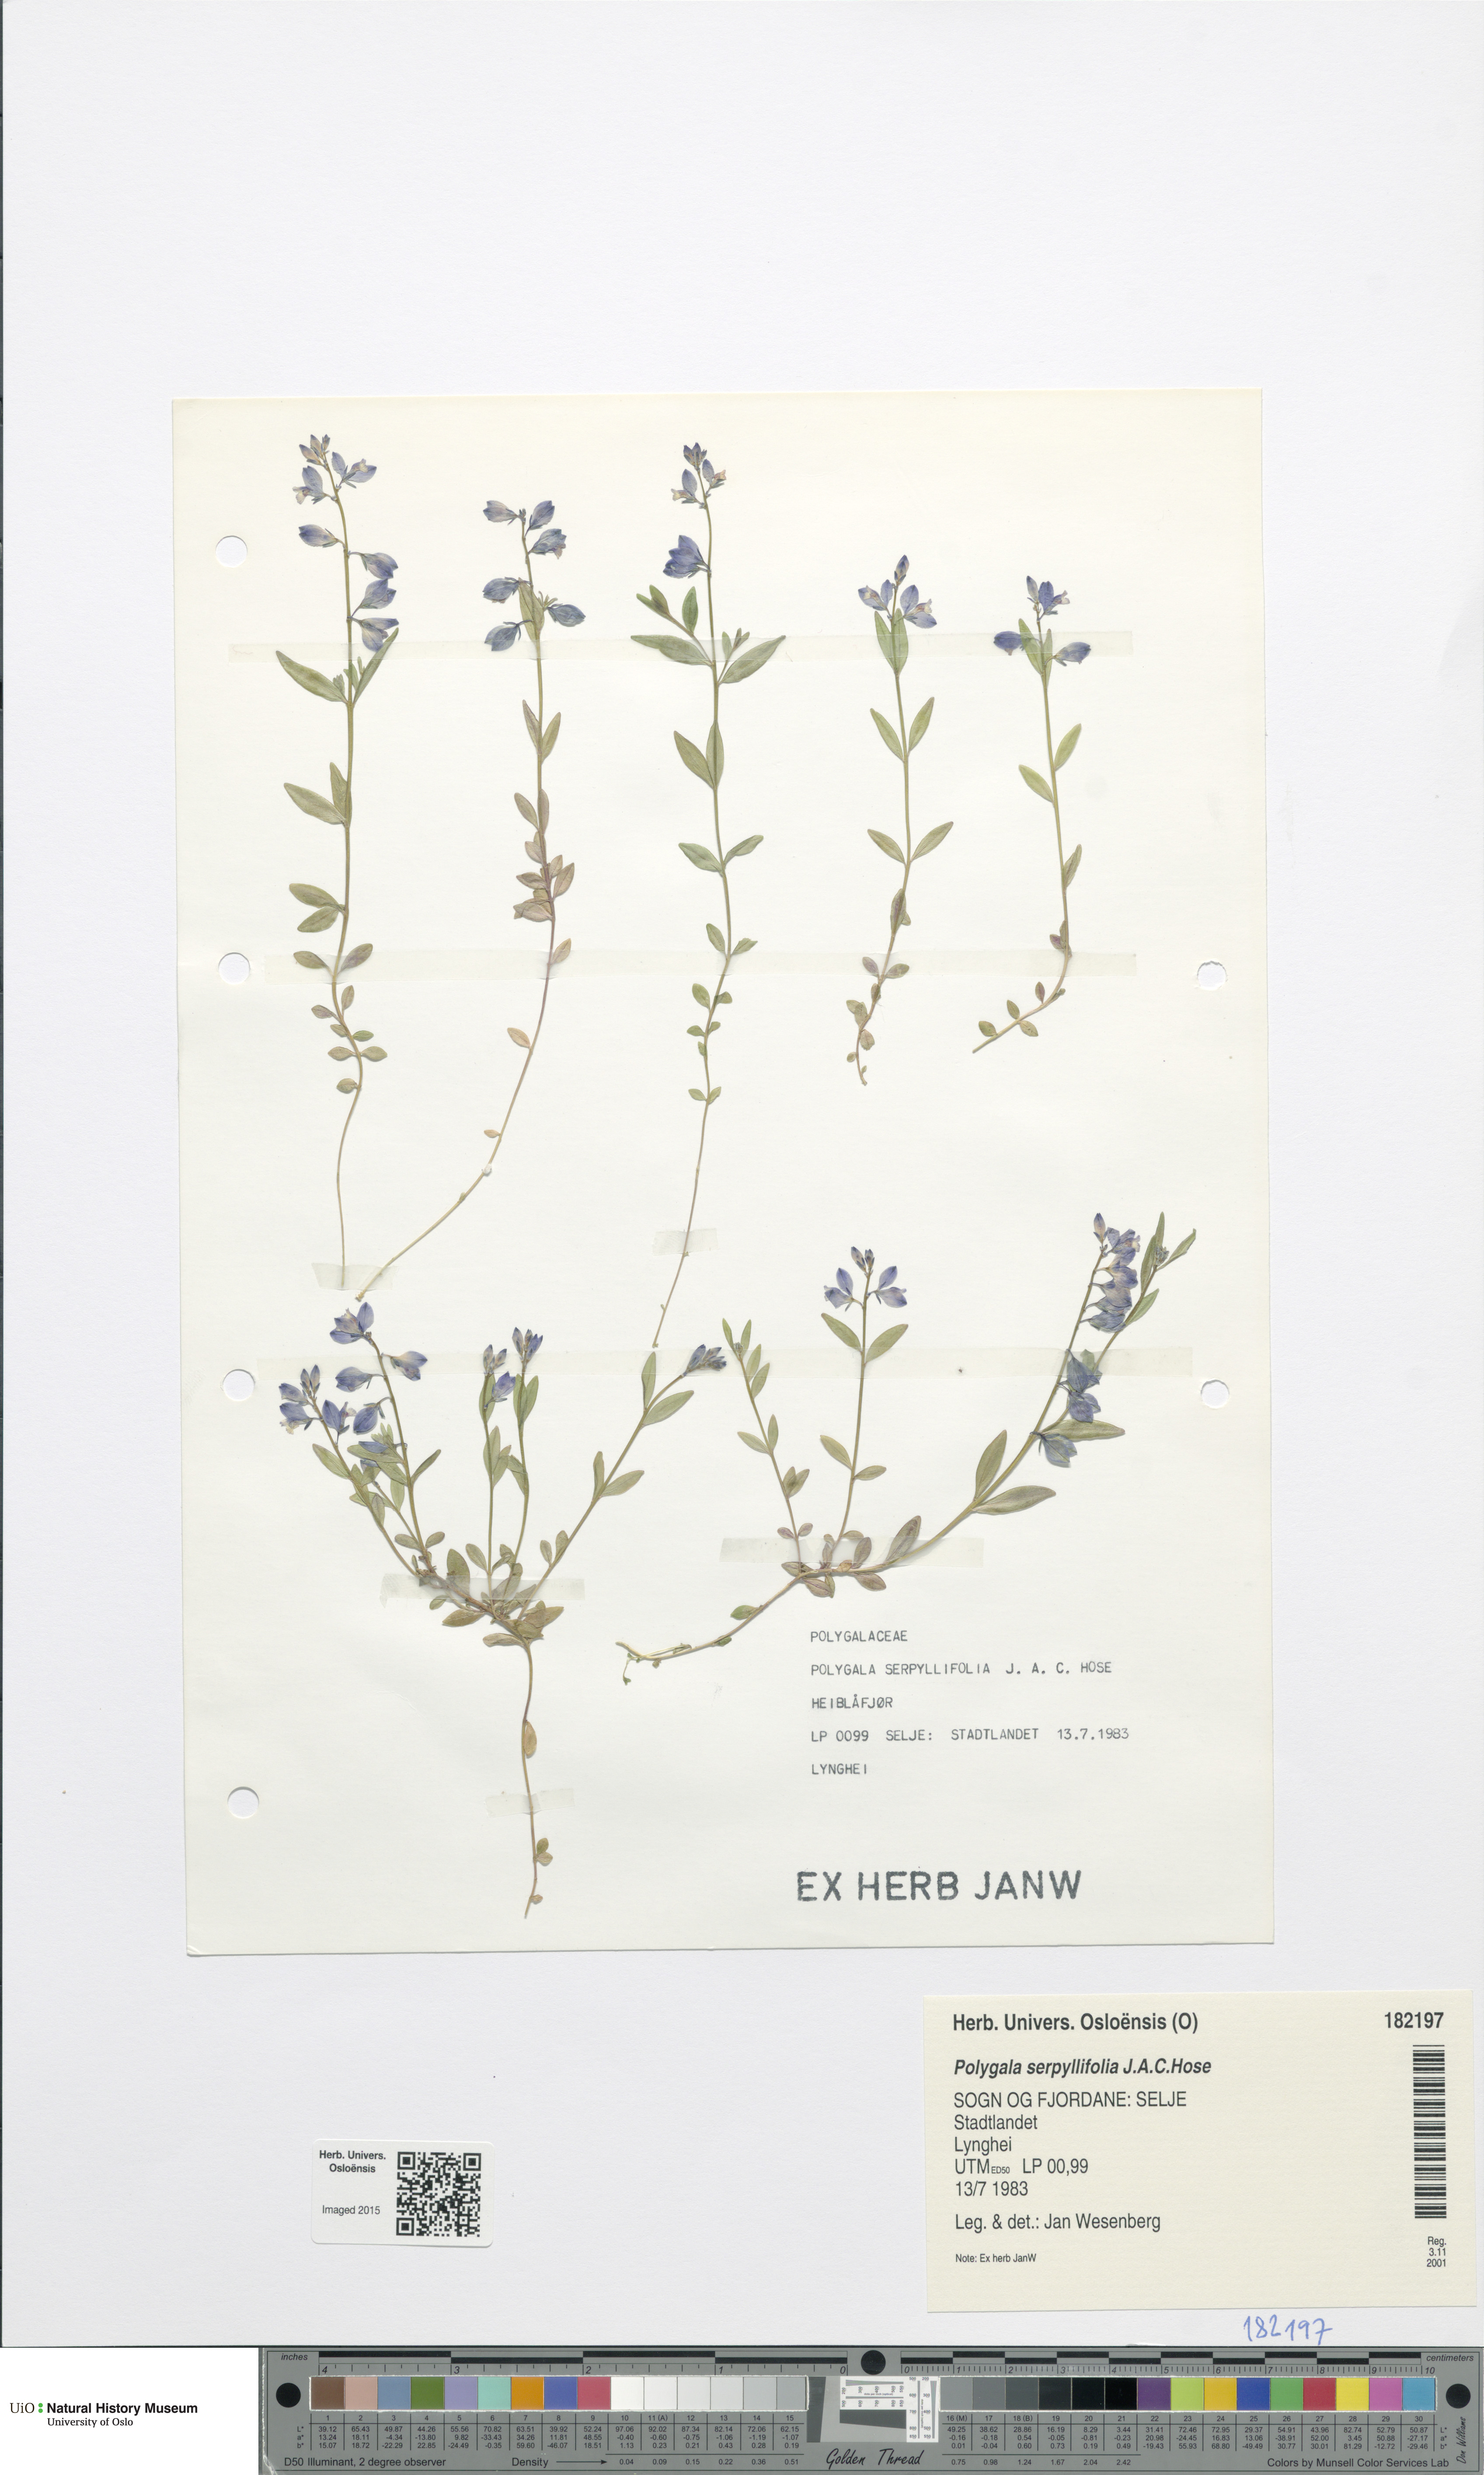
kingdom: Plantae
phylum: Tracheophyta
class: Magnoliopsida
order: Fabales
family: Polygalaceae
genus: Polygala
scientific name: Polygala serpyllifolia
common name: Heath milkwort
